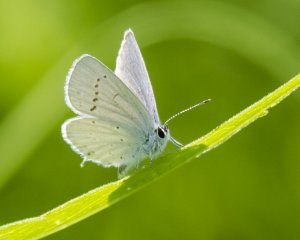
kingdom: Animalia
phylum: Arthropoda
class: Insecta
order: Lepidoptera
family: Lycaenidae
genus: Elkalyce
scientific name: Elkalyce amyntula
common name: Western Tailed-Blue
